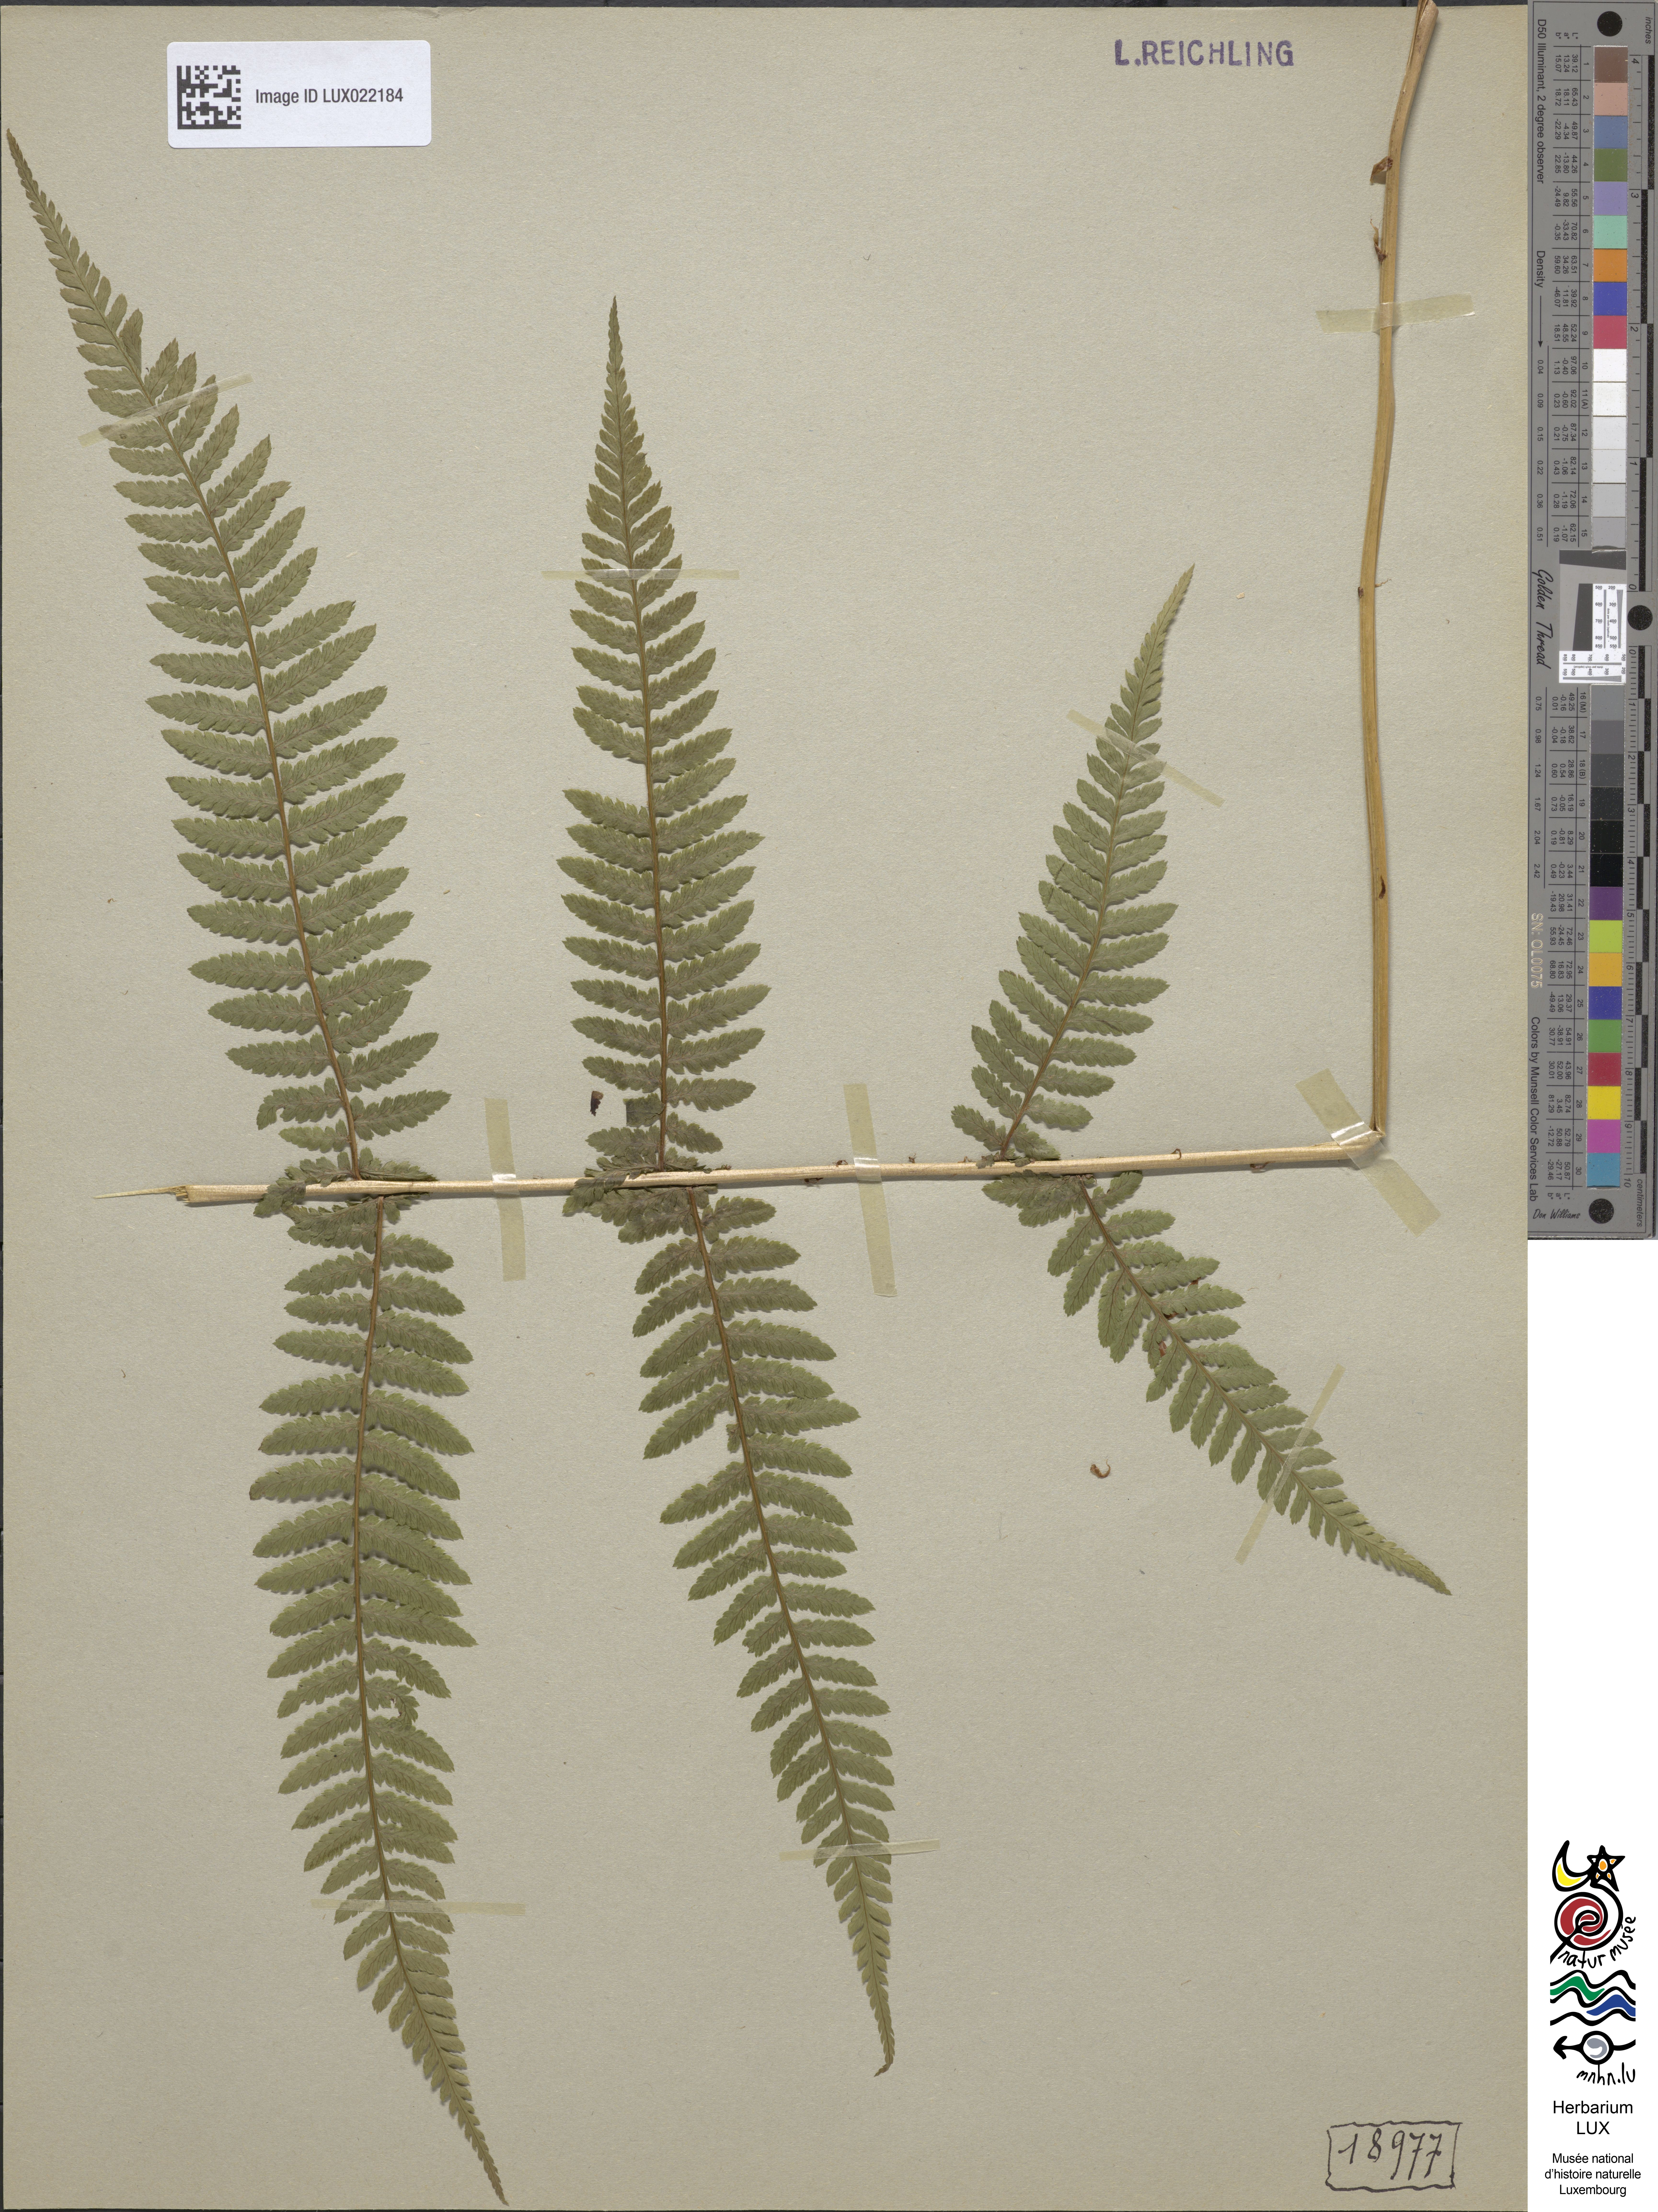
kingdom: Plantae
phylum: Tracheophyta
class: Polypodiopsida
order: Polypodiales
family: Athyriaceae
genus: Athyrium
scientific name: Athyrium filix-femina
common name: Lady fern
